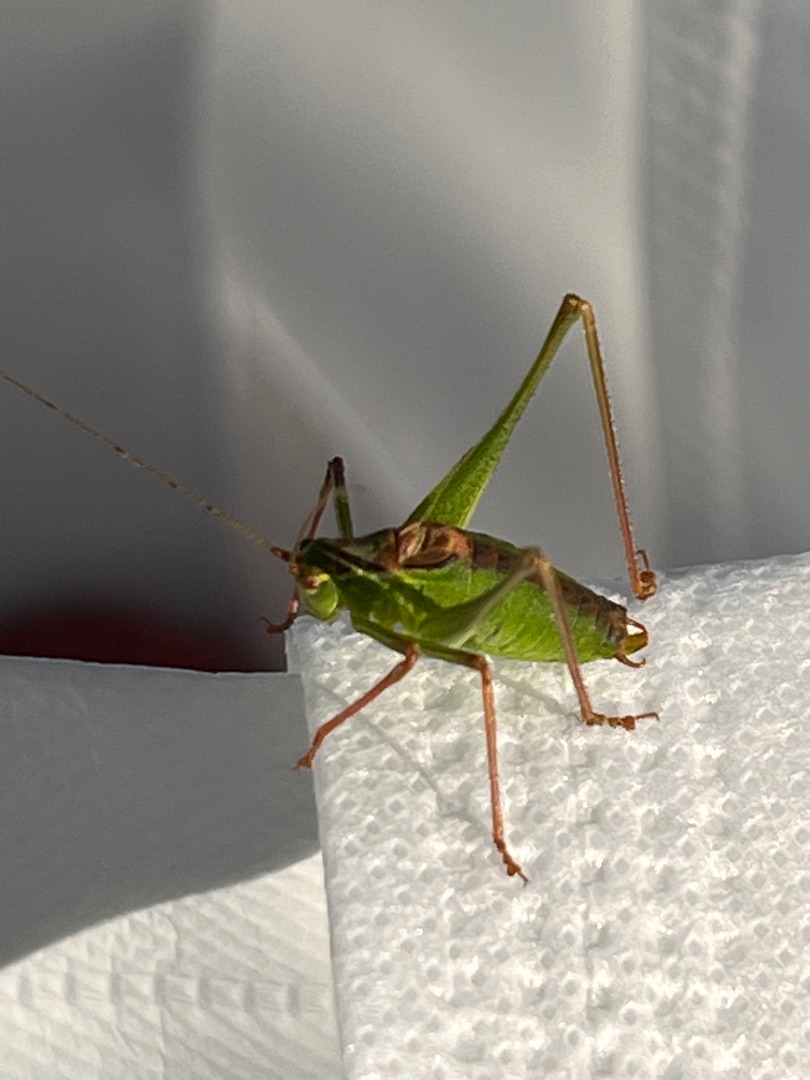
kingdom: Animalia
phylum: Arthropoda
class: Insecta
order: Orthoptera
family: Tettigoniidae
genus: Leptophyes
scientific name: Leptophyes punctatissima
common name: Krumknivgræshoppe
